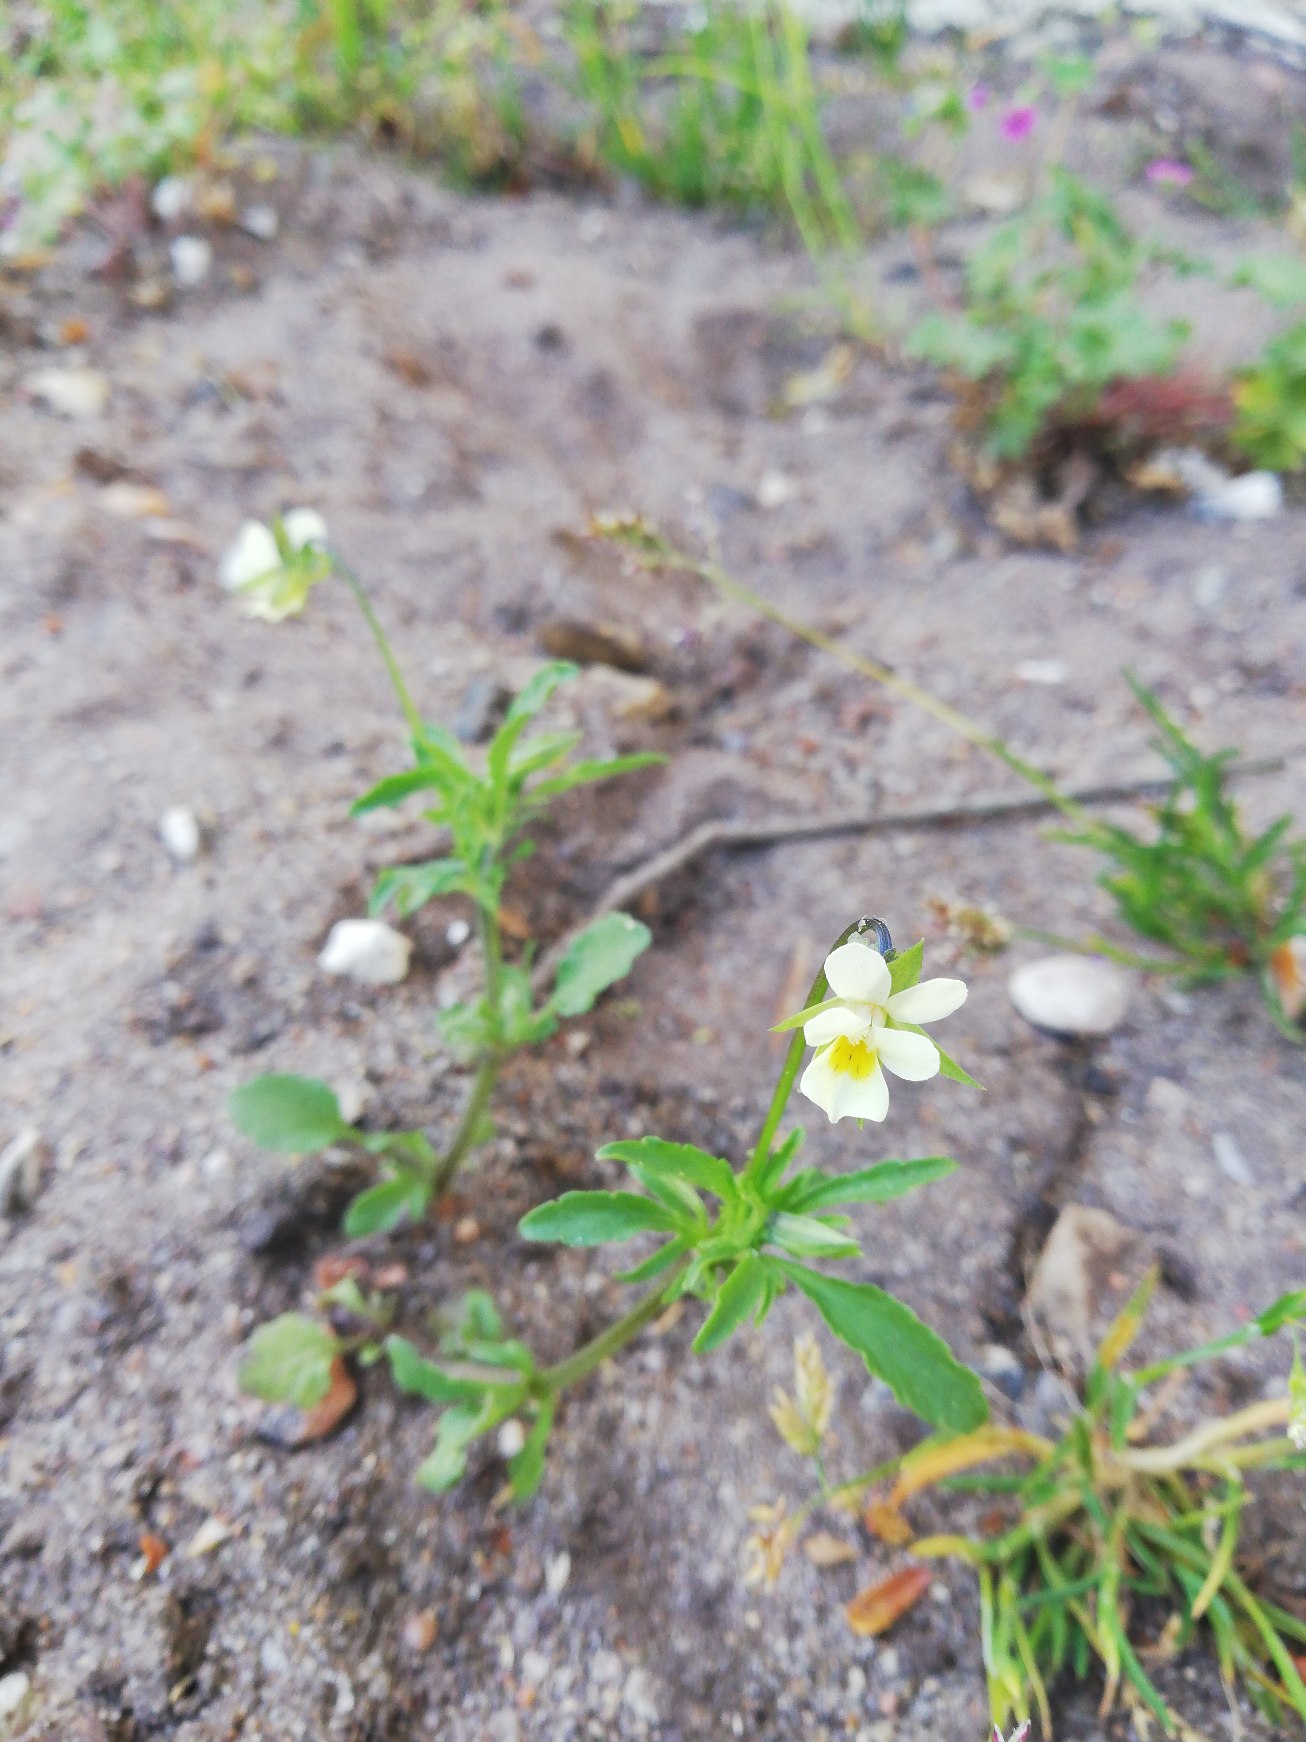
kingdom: Plantae
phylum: Tracheophyta
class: Magnoliopsida
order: Malpighiales
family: Violaceae
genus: Viola
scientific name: Viola arvensis
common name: Ager-stedmoderblomst
